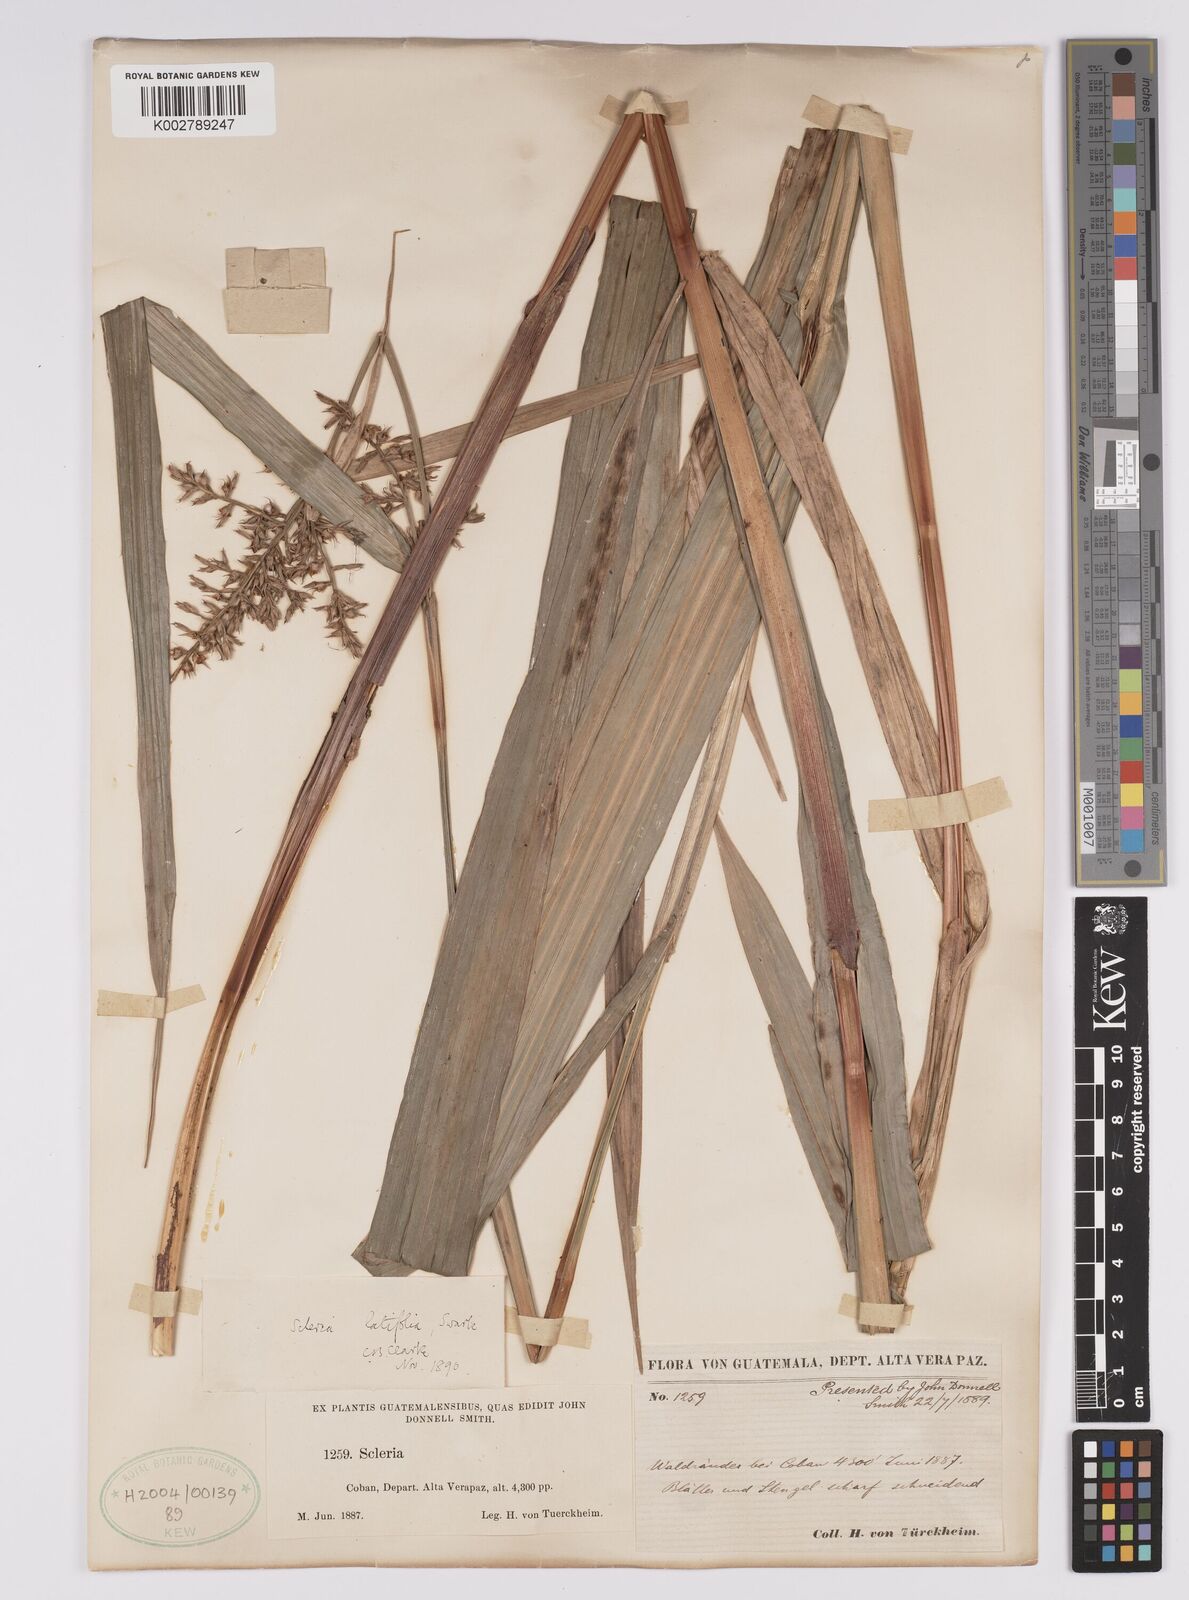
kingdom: Plantae
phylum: Tracheophyta
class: Liliopsida
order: Poales
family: Cyperaceae
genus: Scleria
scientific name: Scleria latifolia
